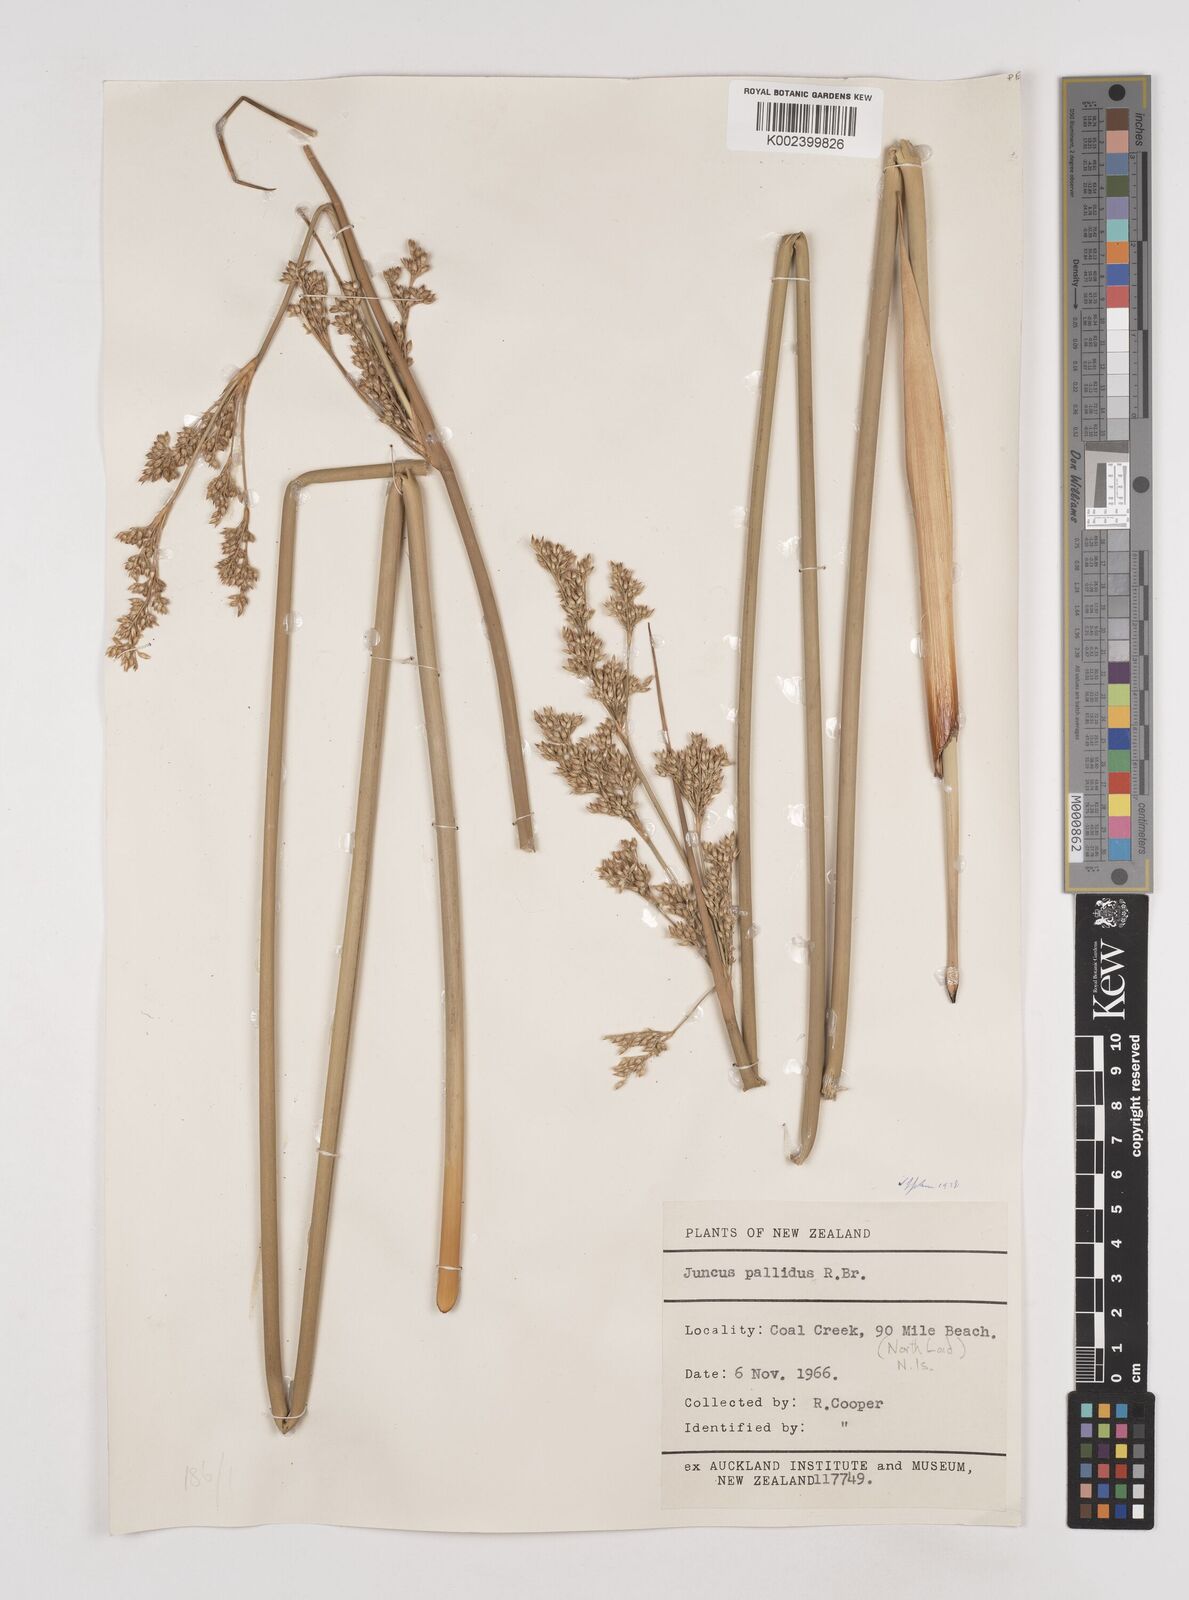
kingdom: Plantae
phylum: Tracheophyta
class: Liliopsida
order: Poales
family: Juncaceae
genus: Juncus
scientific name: Juncus pallidus
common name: Great soft-rush
